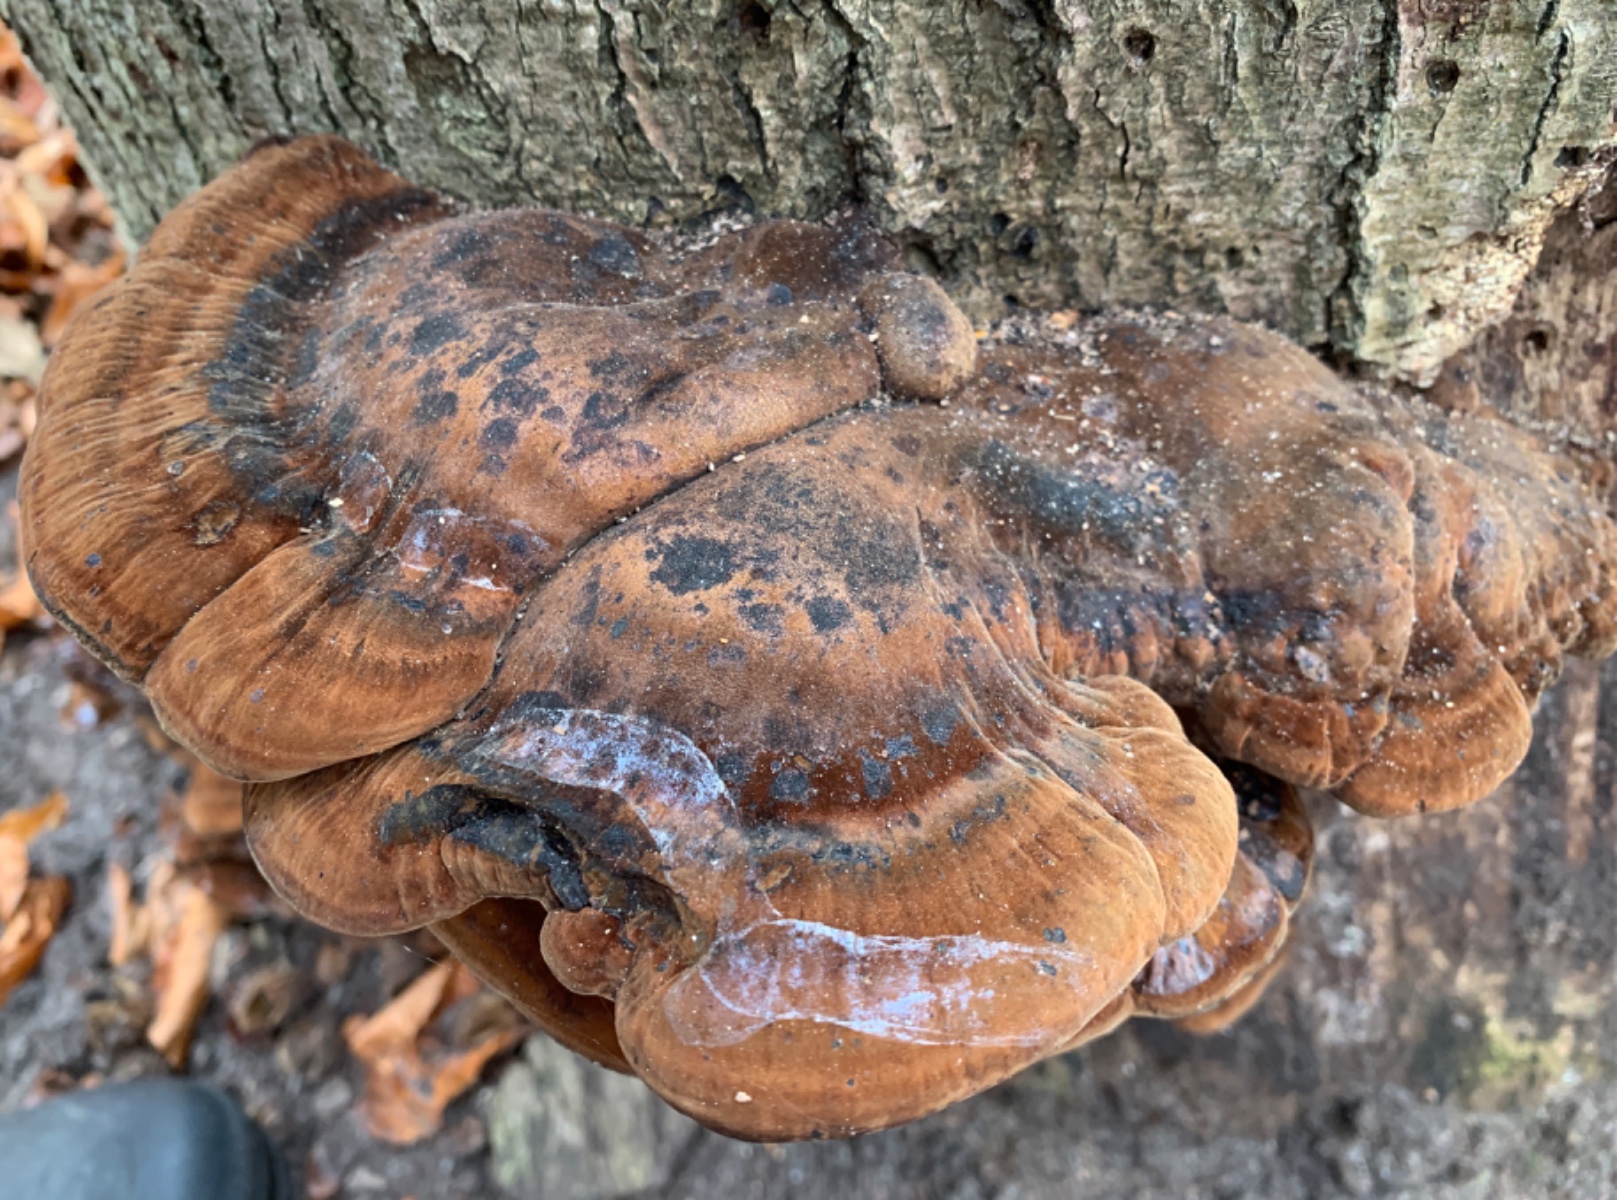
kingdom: Fungi
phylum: Basidiomycota
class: Agaricomycetes
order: Polyporales
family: Ischnodermataceae
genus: Ischnoderma
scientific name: Ischnoderma resinosum
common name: løv-tjæreporesvamp
